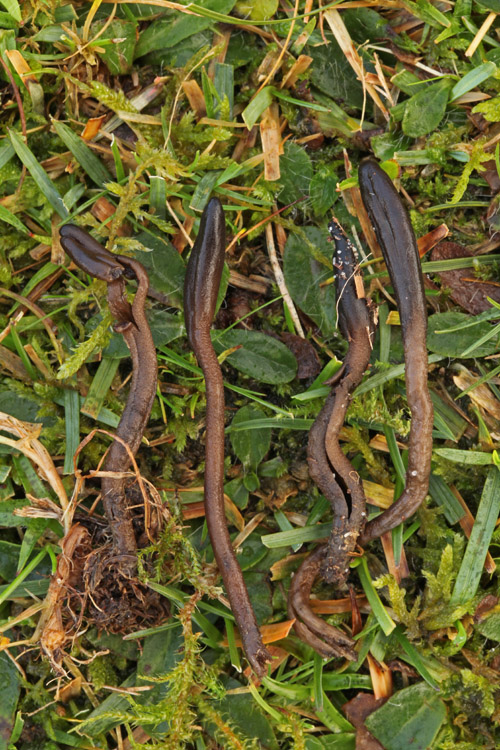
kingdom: Fungi
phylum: Ascomycota
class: Geoglossomycetes
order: Geoglossales
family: Geoglossaceae
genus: Geoglossum
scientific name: Geoglossum fallax
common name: småskællet jordtunge
